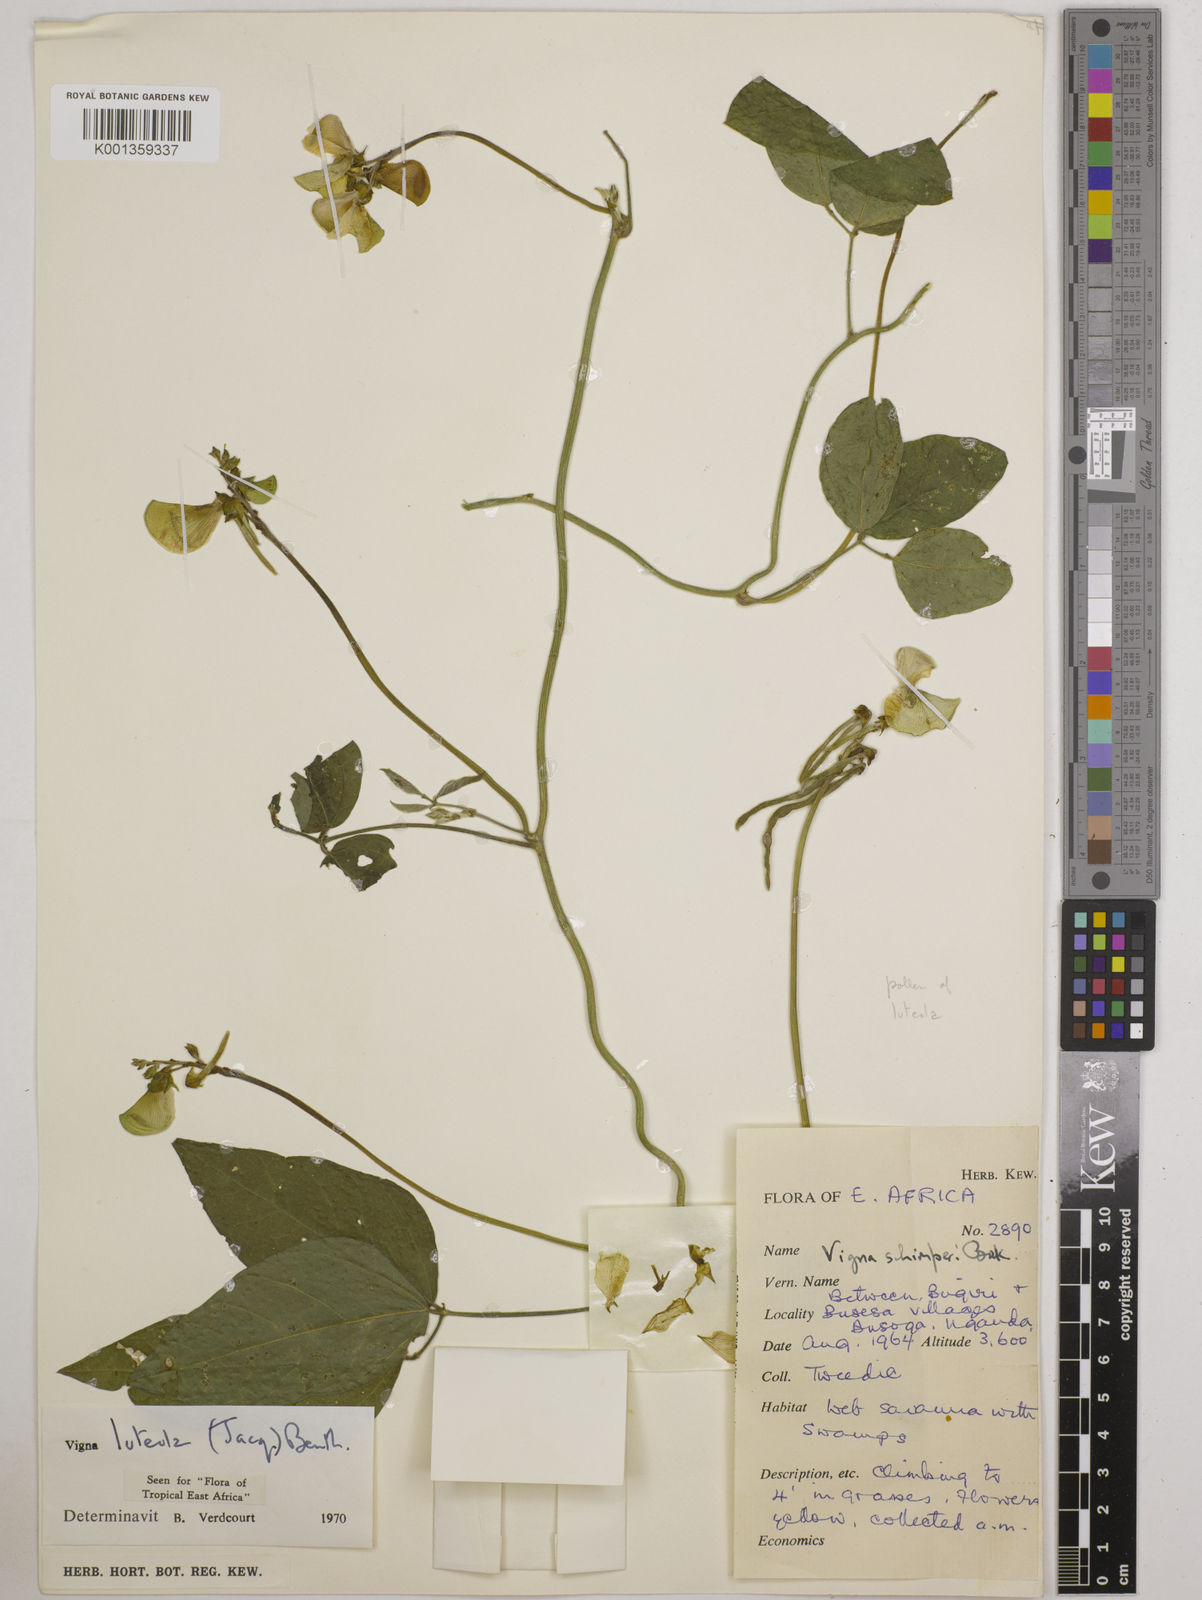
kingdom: Plantae
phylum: Tracheophyta
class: Magnoliopsida
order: Fabales
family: Fabaceae
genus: Vigna
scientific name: Vigna luteola
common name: Hairypod cowpea
